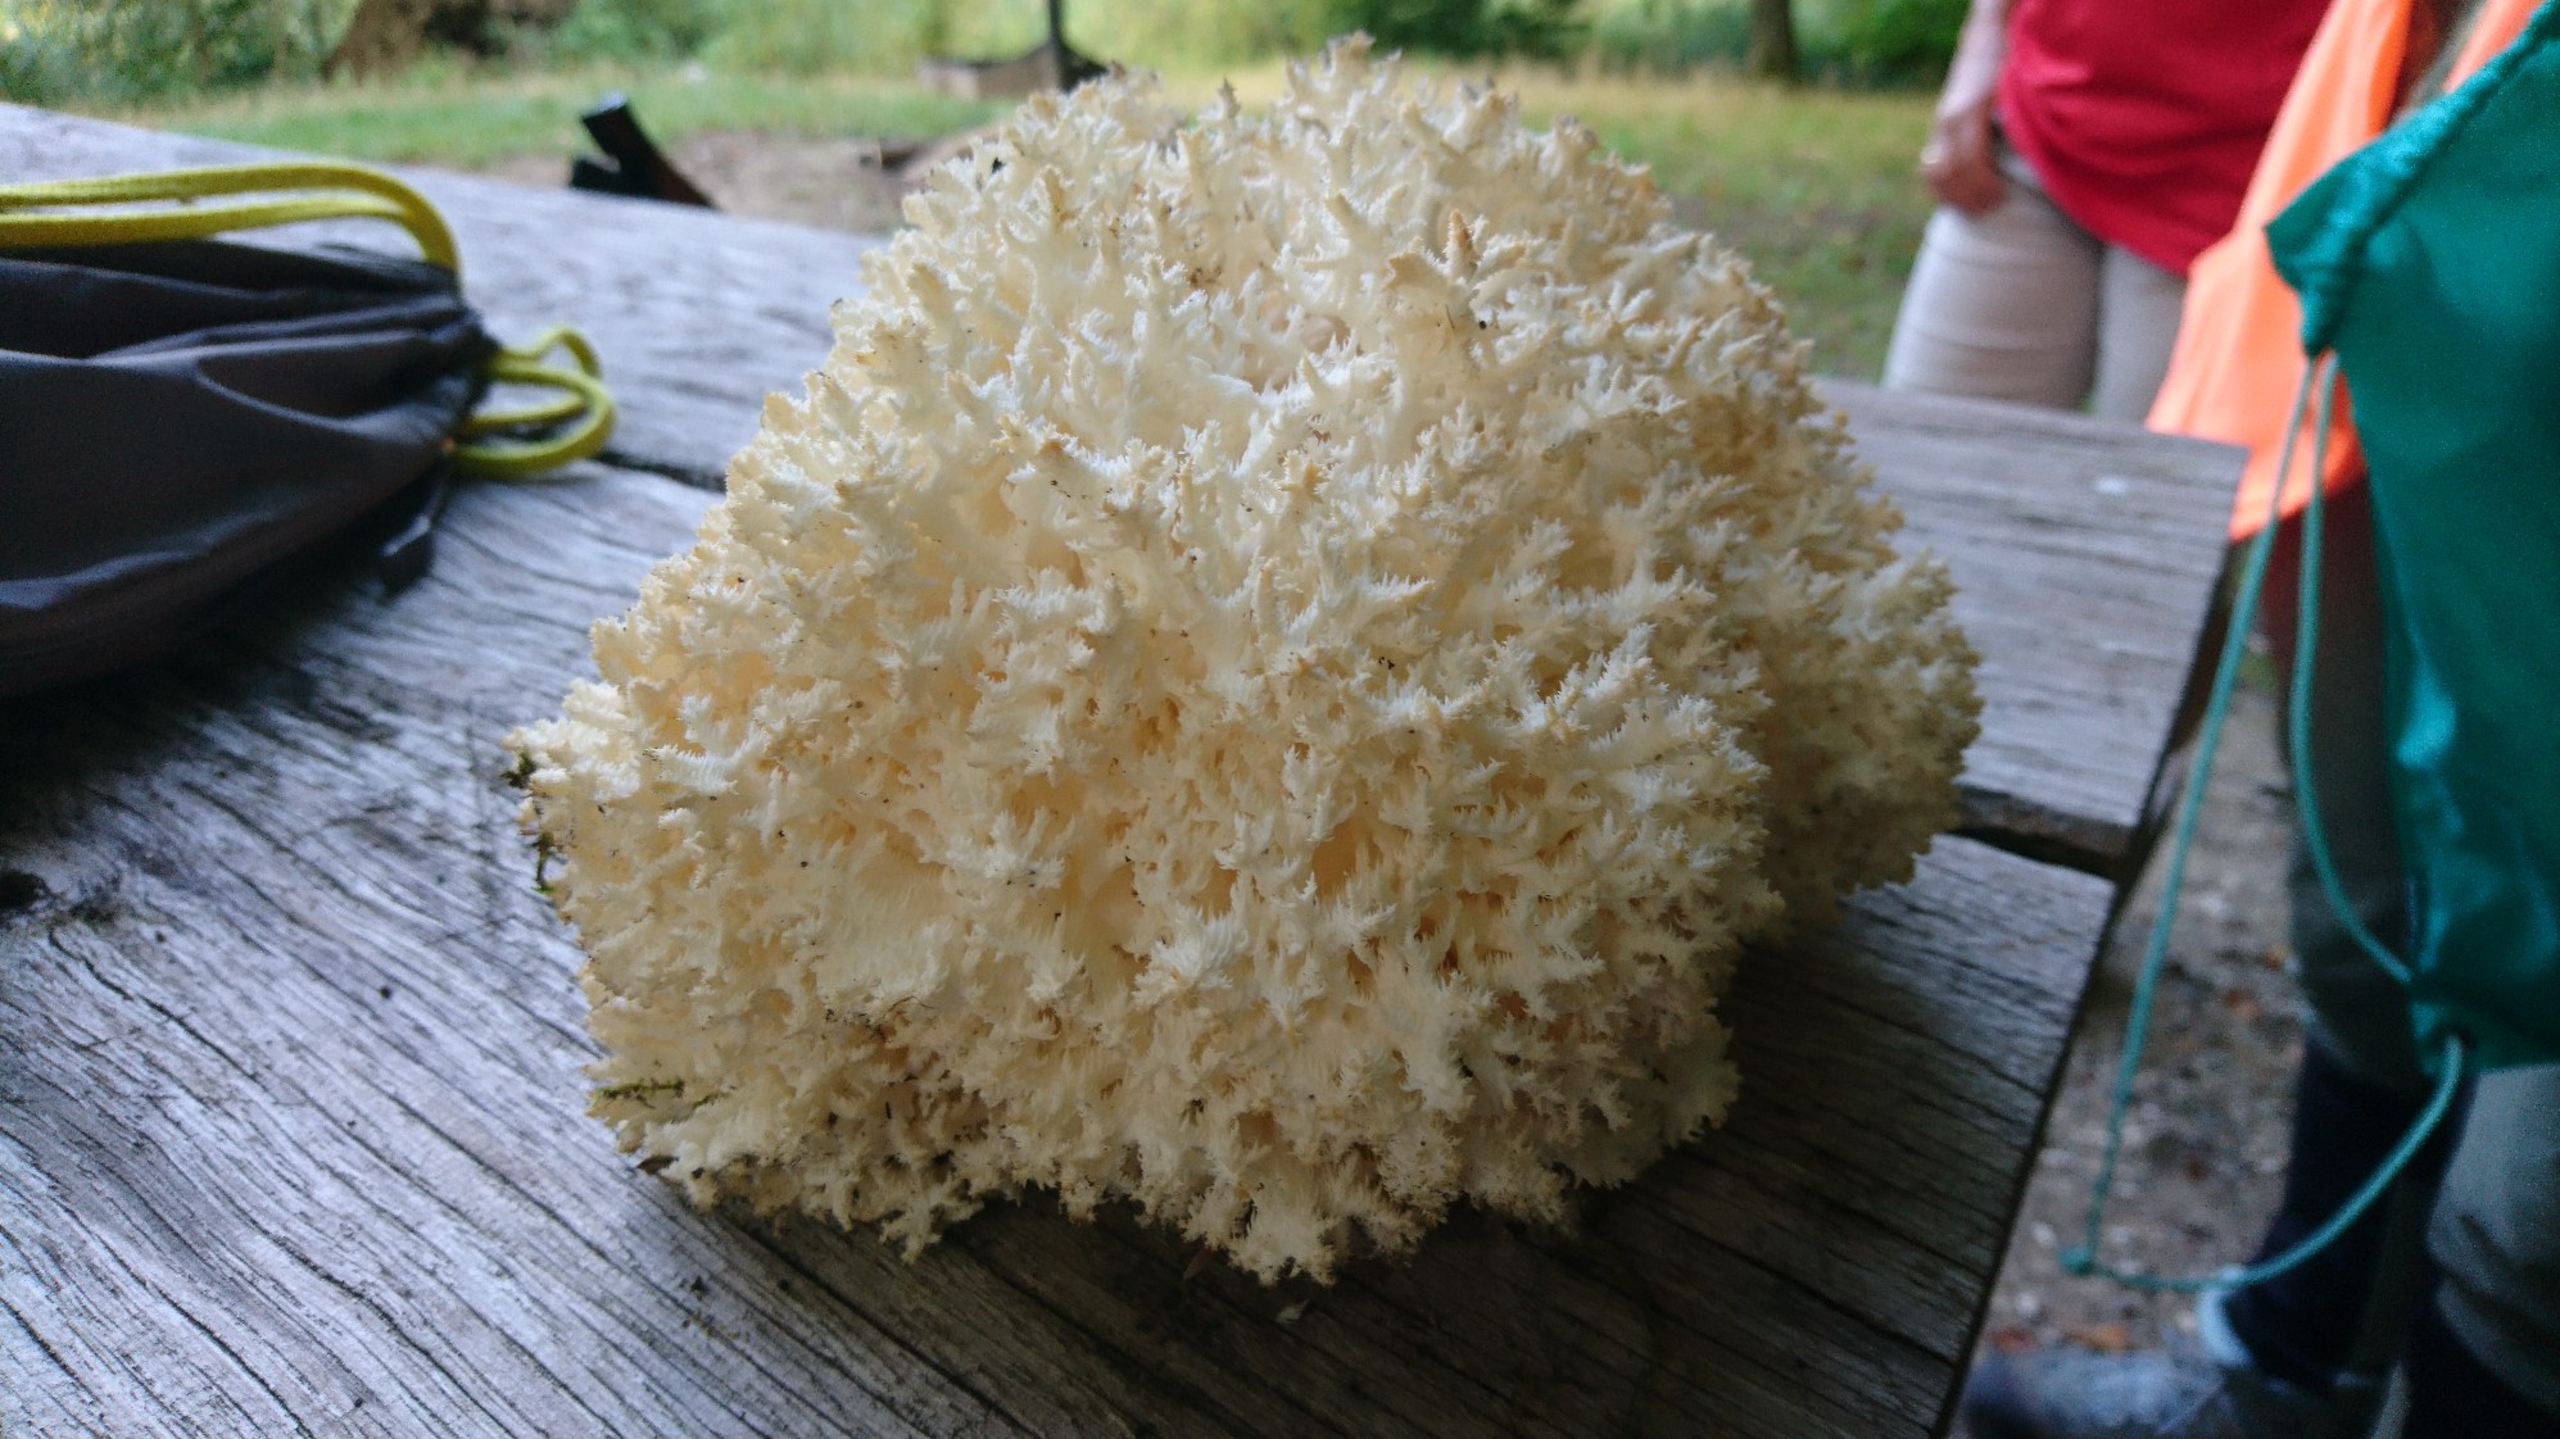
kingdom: Fungi
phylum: Basidiomycota
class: Agaricomycetes
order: Russulales
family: Hericiaceae
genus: Hericium
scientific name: Hericium coralloides
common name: Koralpigsvamp
